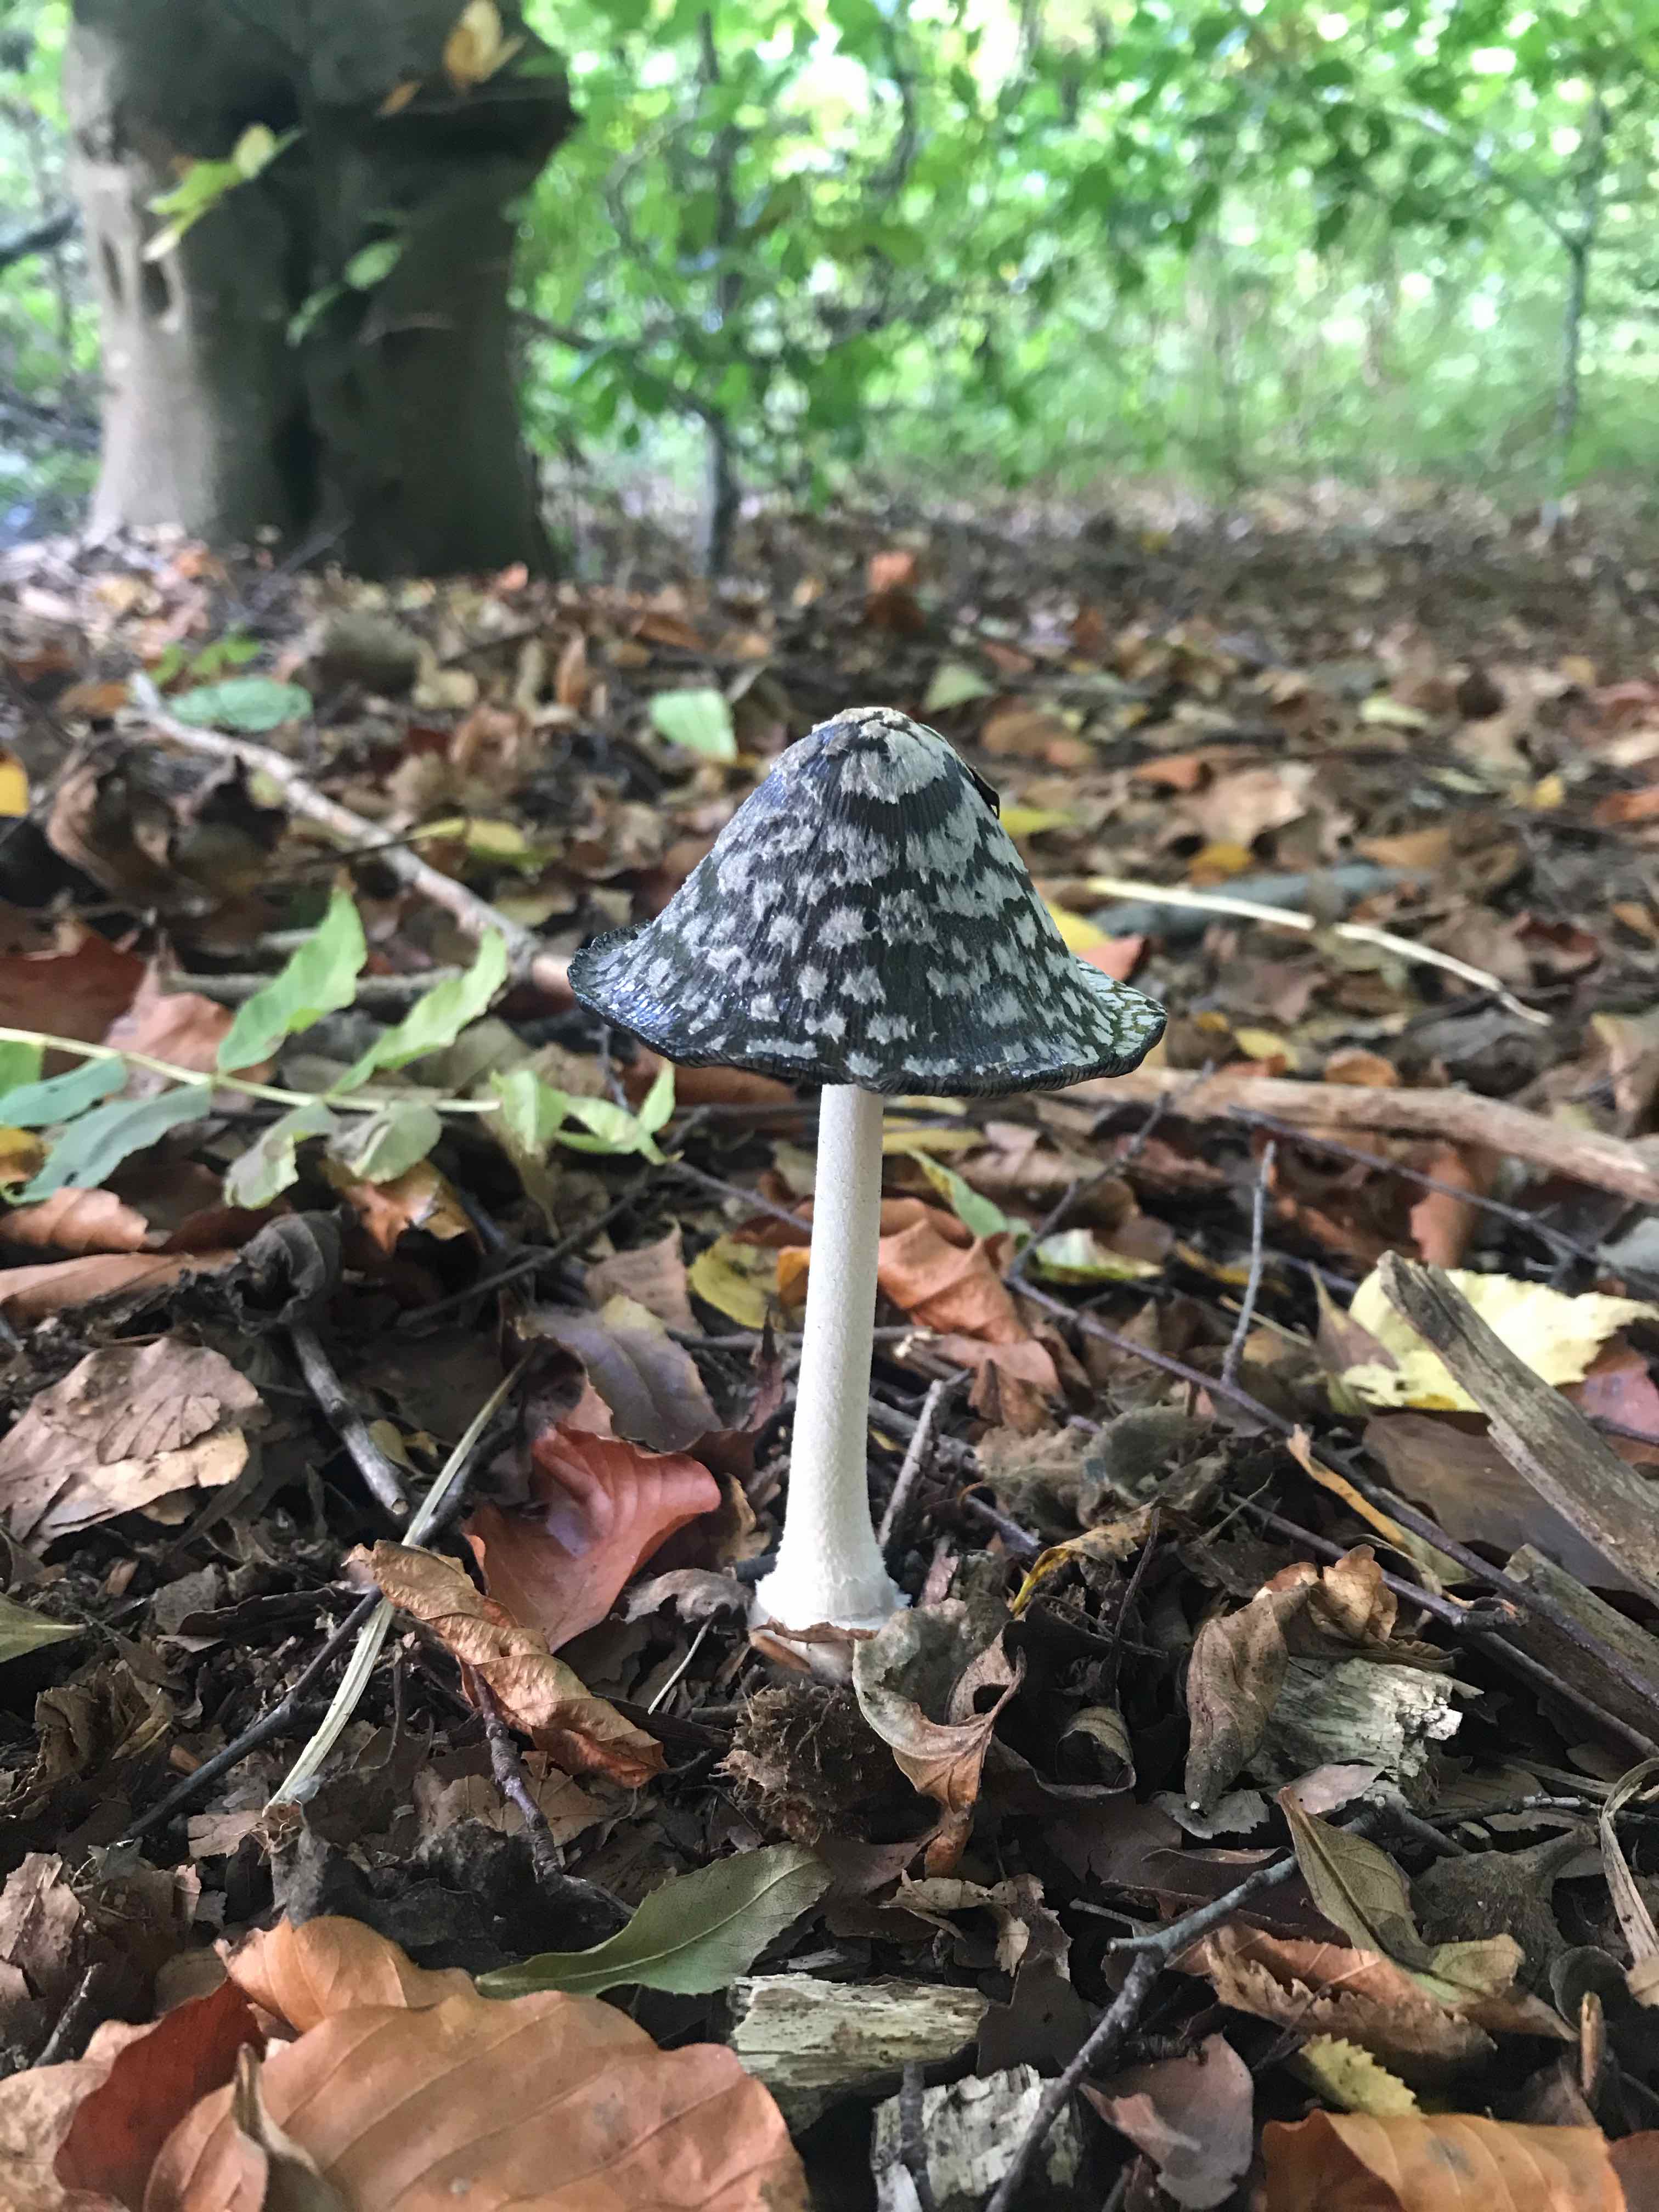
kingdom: Fungi
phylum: Basidiomycota
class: Agaricomycetes
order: Agaricales
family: Psathyrellaceae
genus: Coprinopsis
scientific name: Coprinopsis picacea
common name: skade-blækhat
